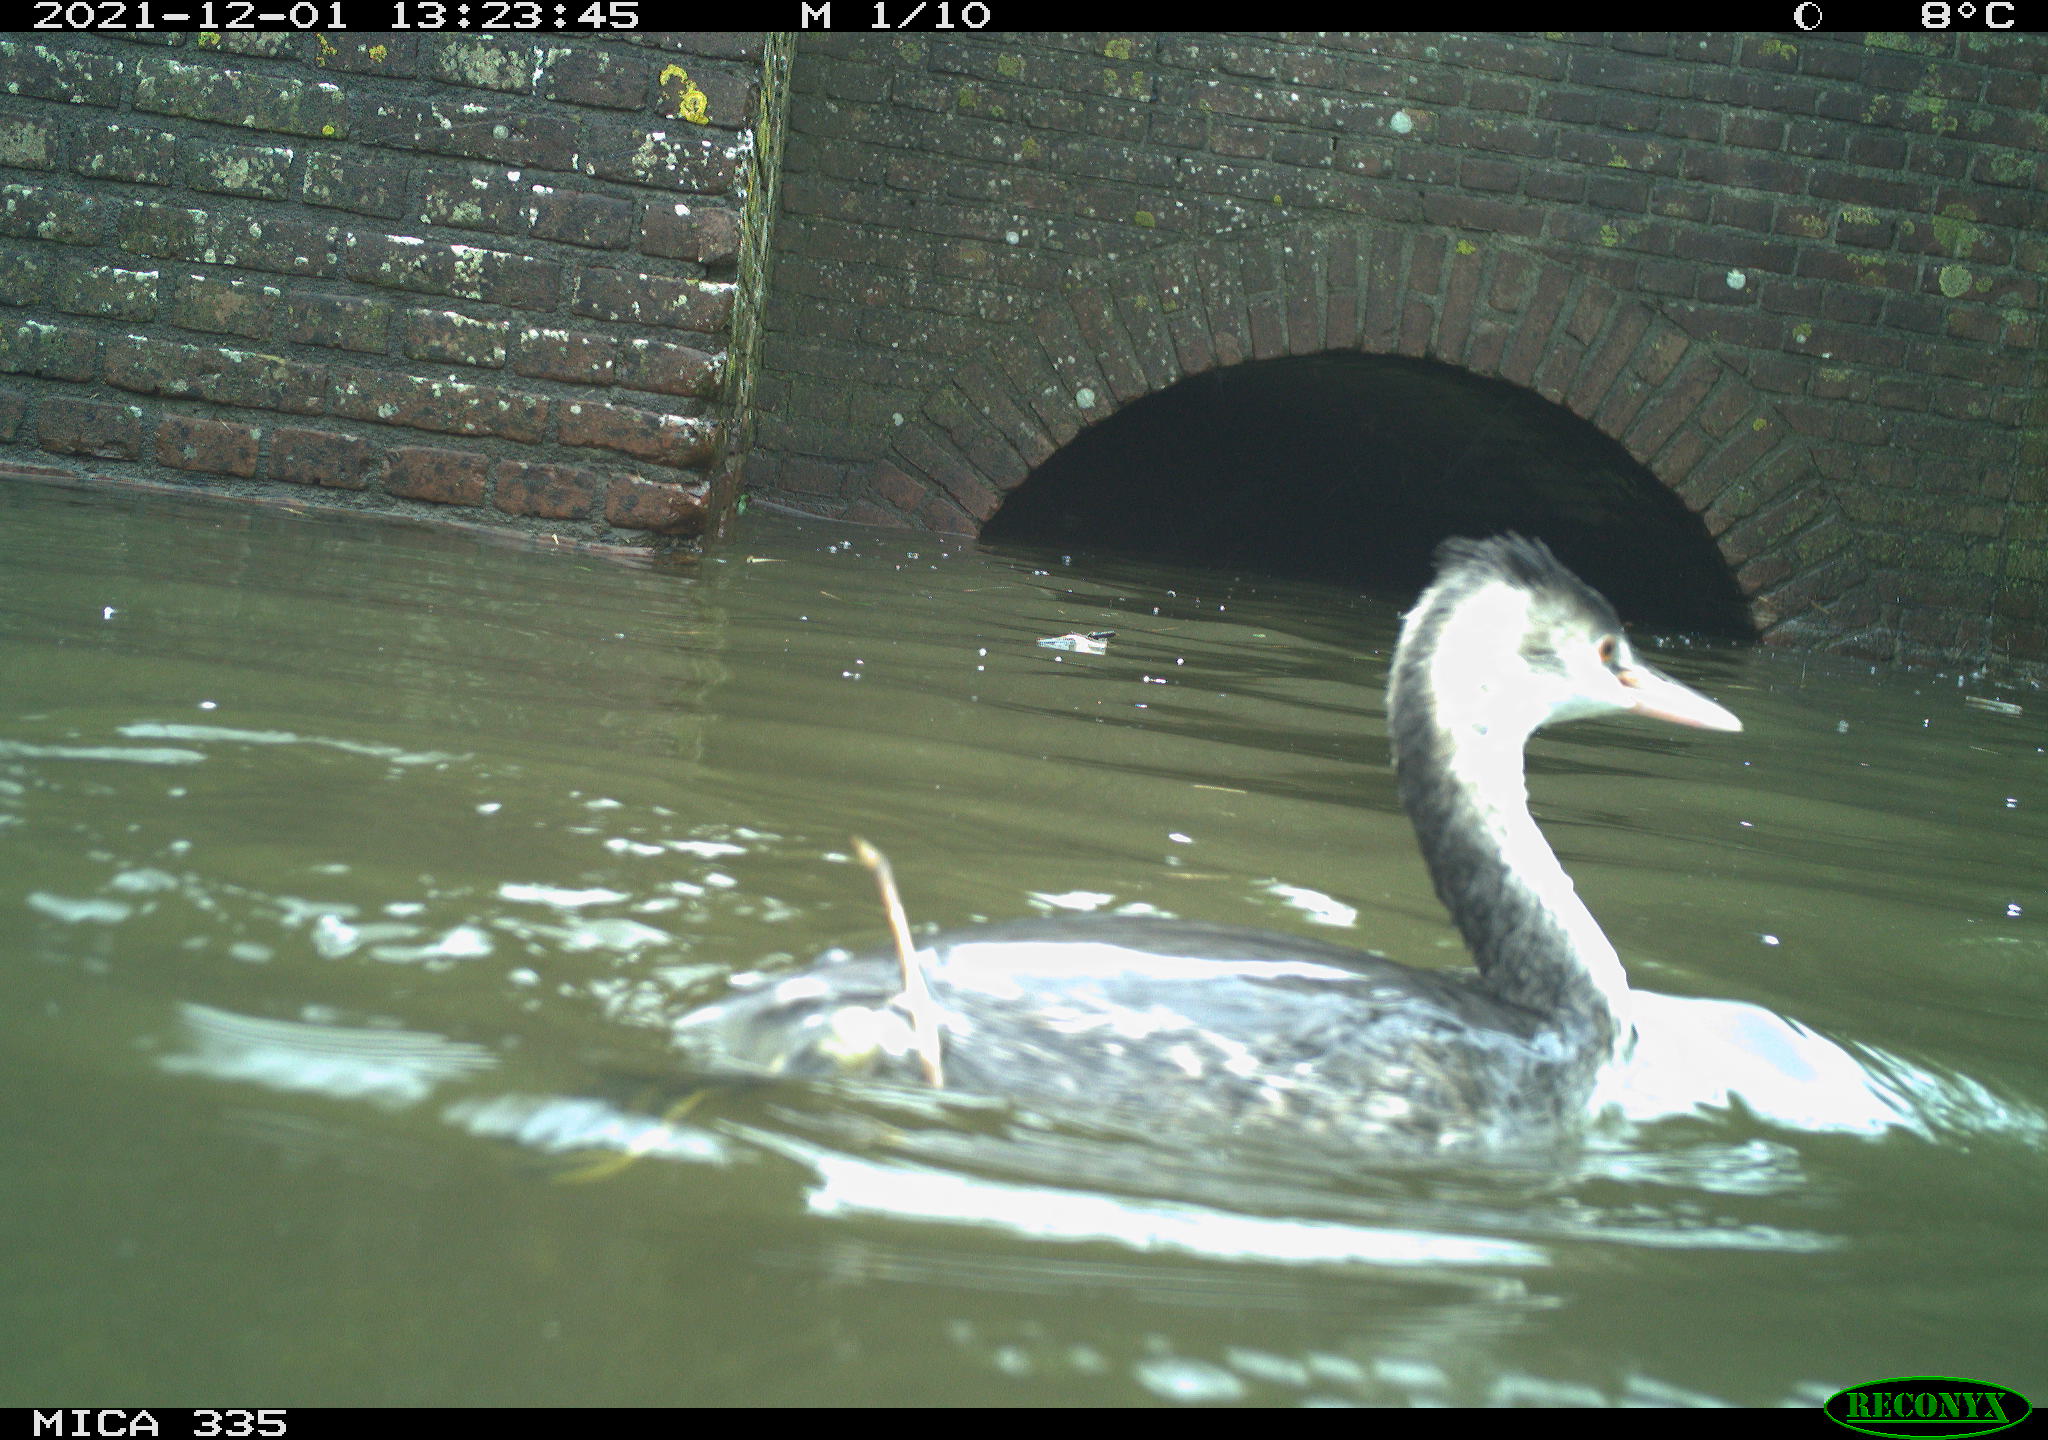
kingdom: Animalia
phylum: Chordata
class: Aves
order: Podicipediformes
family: Podicipedidae
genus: Podiceps
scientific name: Podiceps cristatus
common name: Great crested grebe
